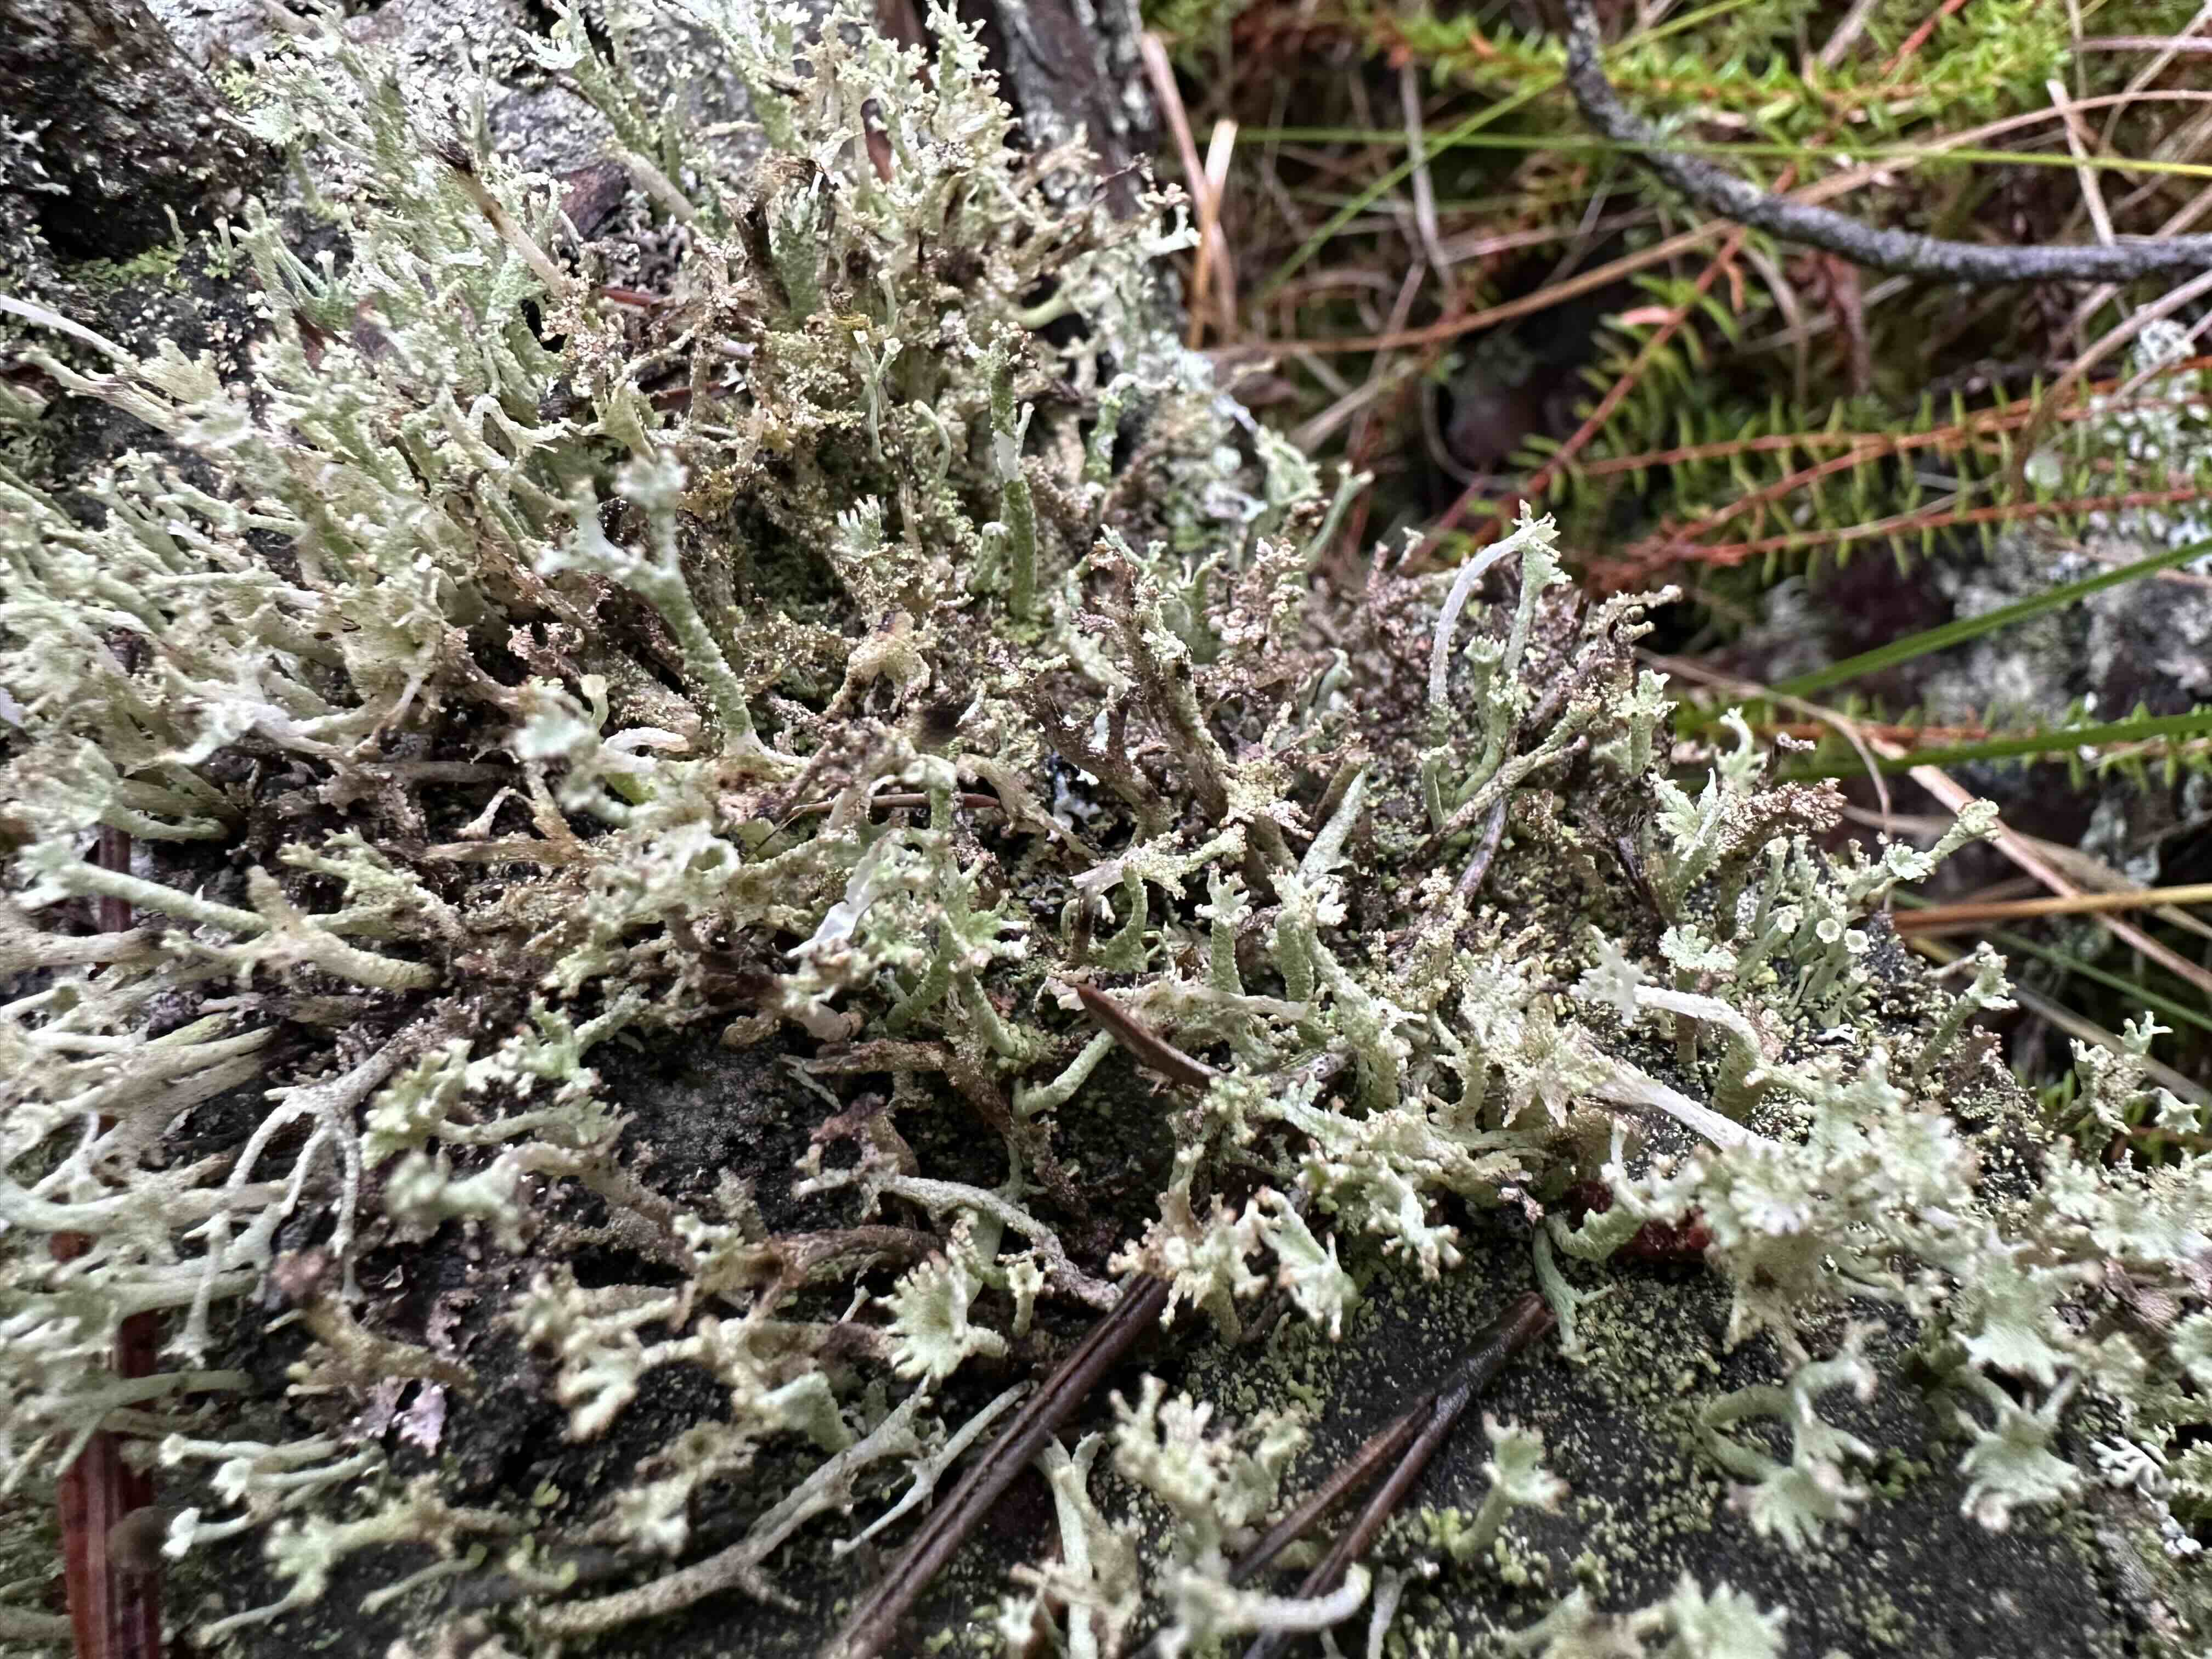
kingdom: Fungi
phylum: Ascomycota
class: Lecanoromycetes
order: Lecanorales
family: Cladoniaceae
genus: Cladonia
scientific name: Cladonia ramulosa
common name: kliddet bægerlav
